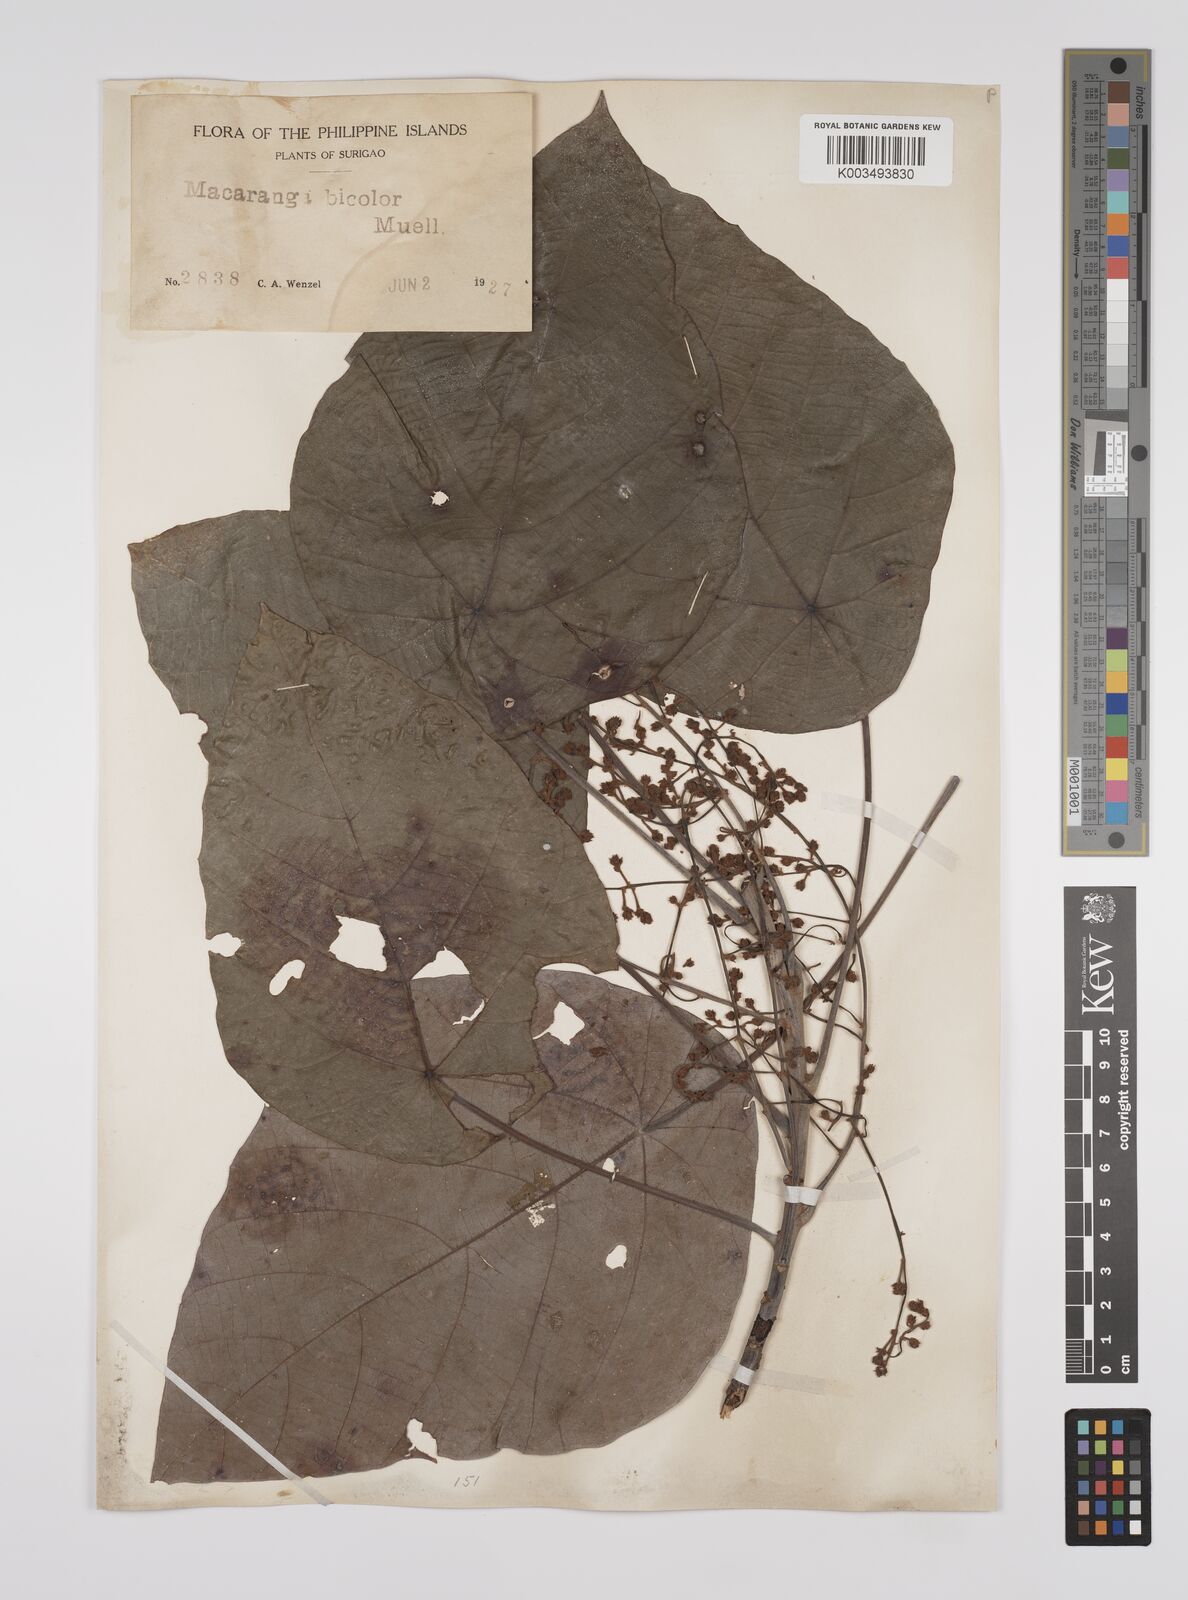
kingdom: Plantae
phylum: Tracheophyta
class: Magnoliopsida
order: Malpighiales
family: Euphorbiaceae
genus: Macaranga
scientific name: Macaranga bicolor
